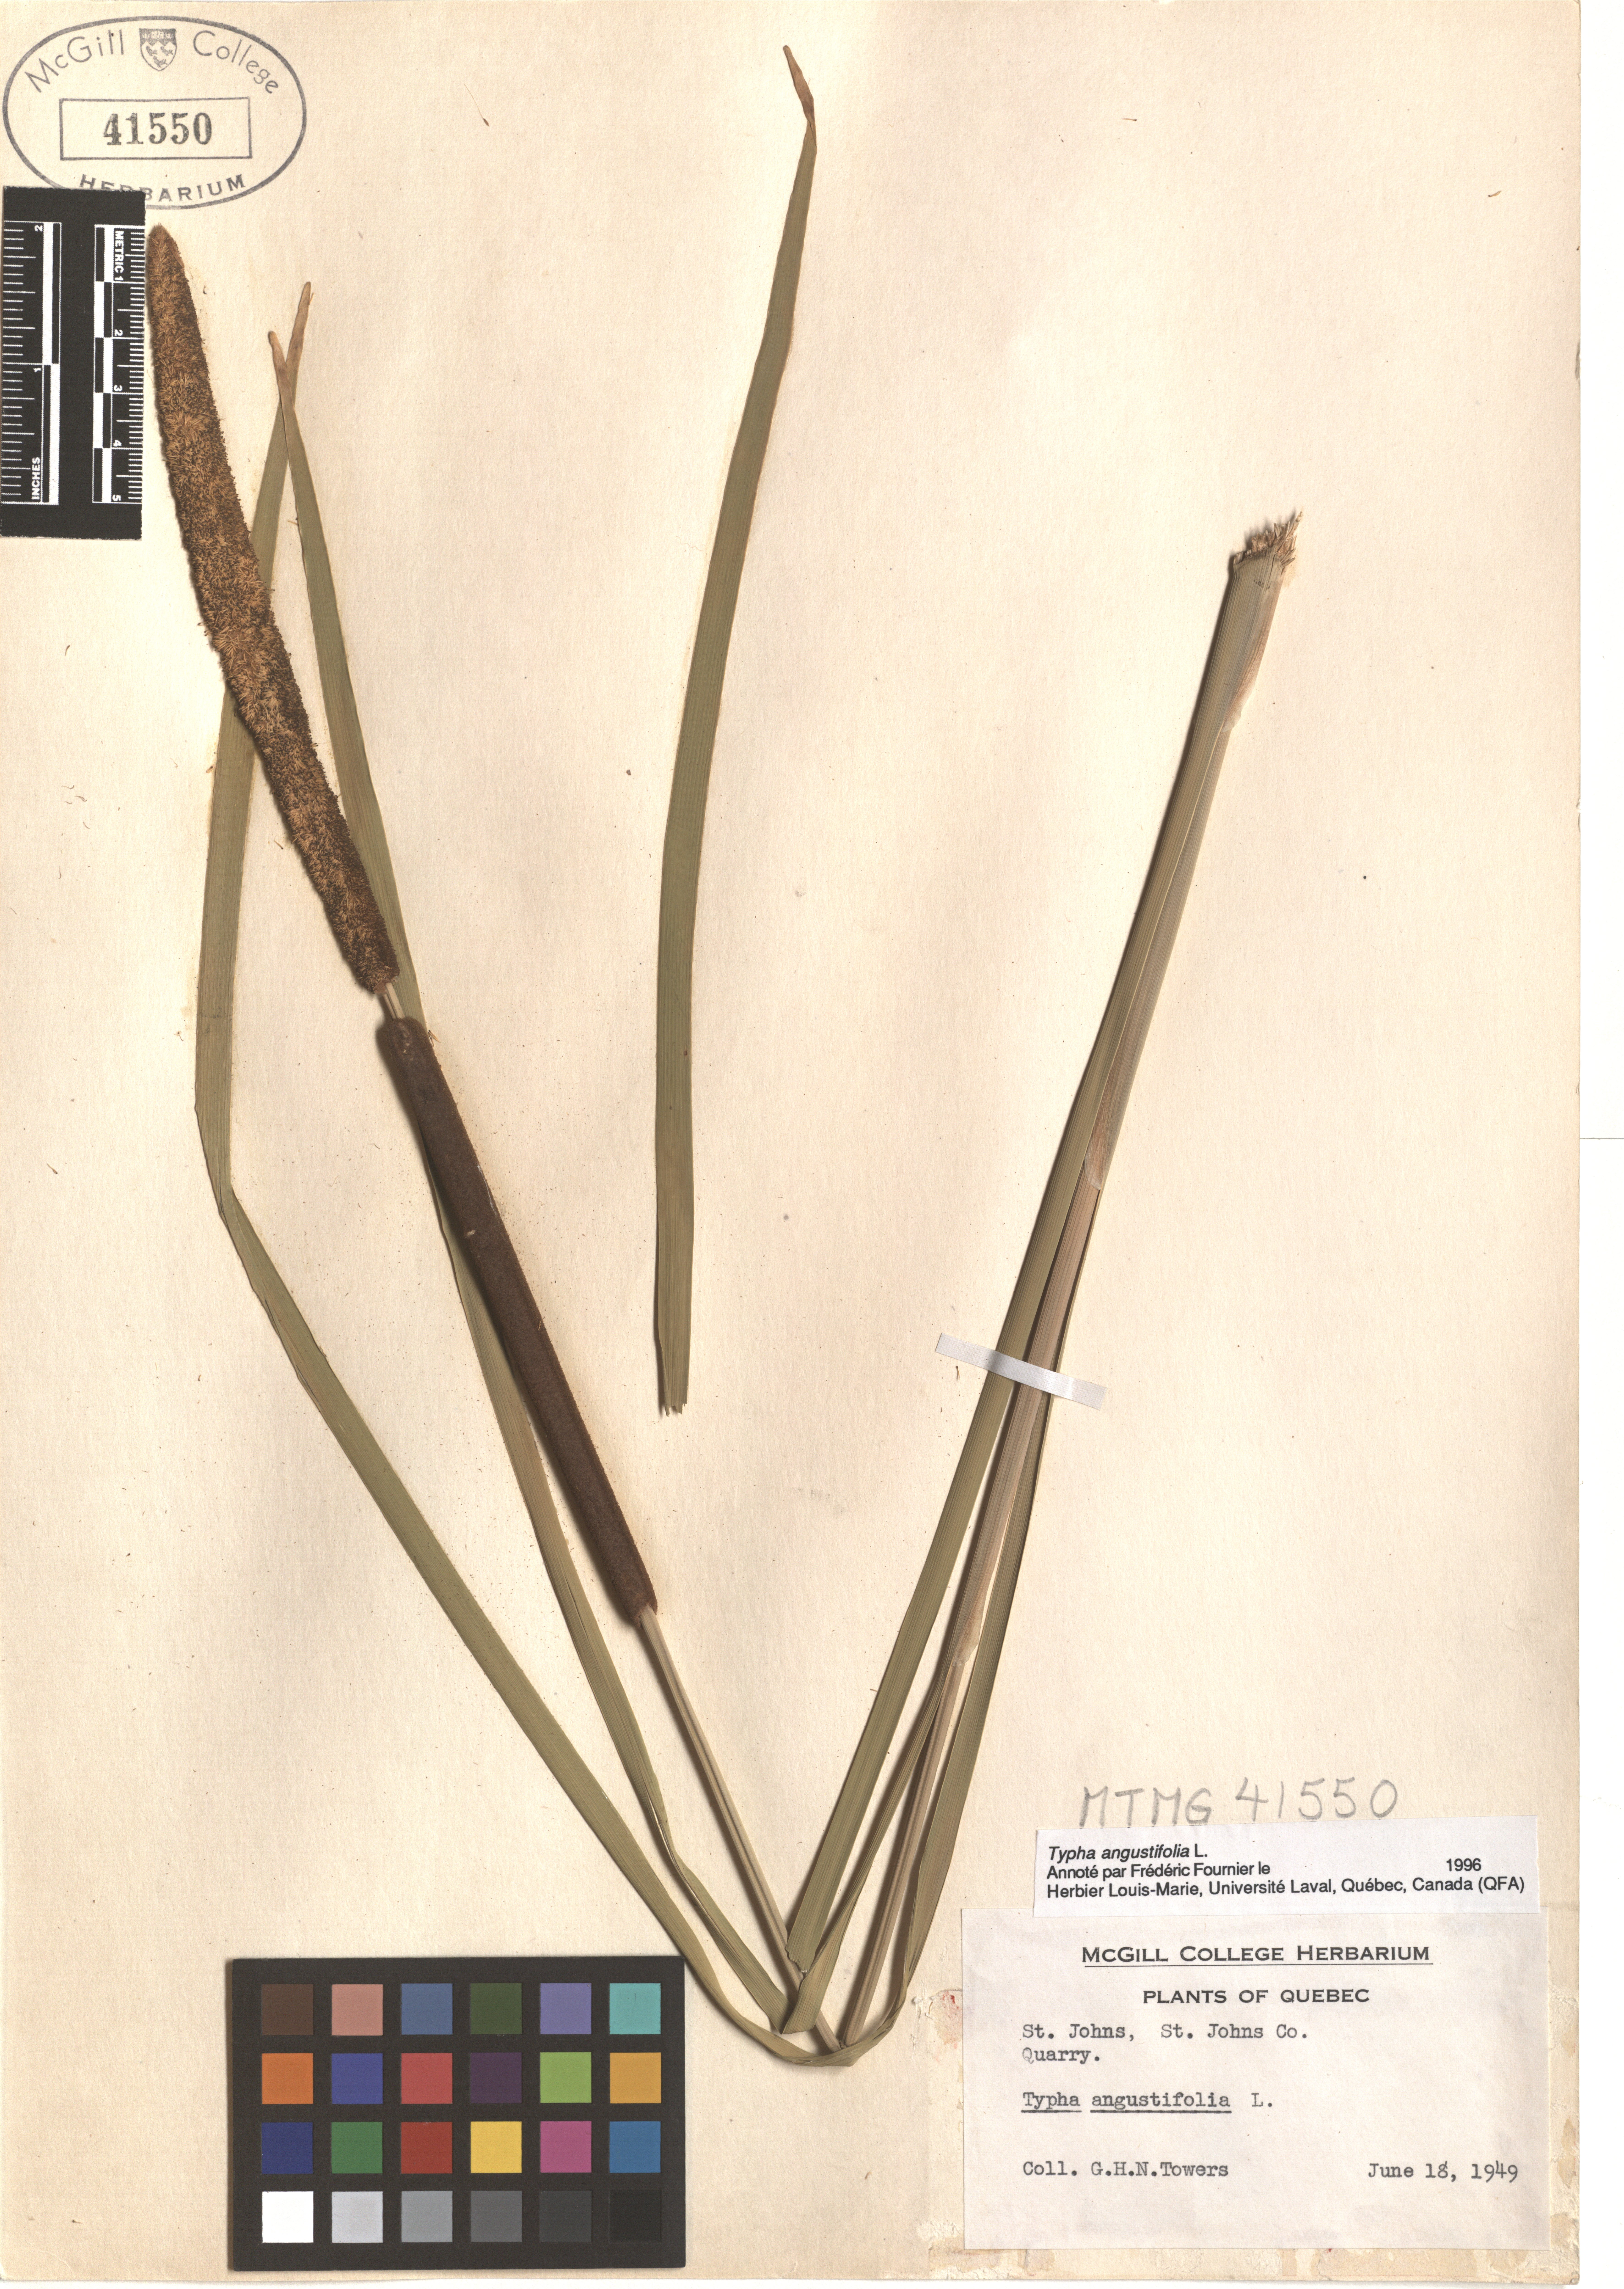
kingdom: Plantae
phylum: Tracheophyta
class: Liliopsida
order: Poales
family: Typhaceae
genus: Typha
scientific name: Typha angustifolia
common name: Lesser bulrush
